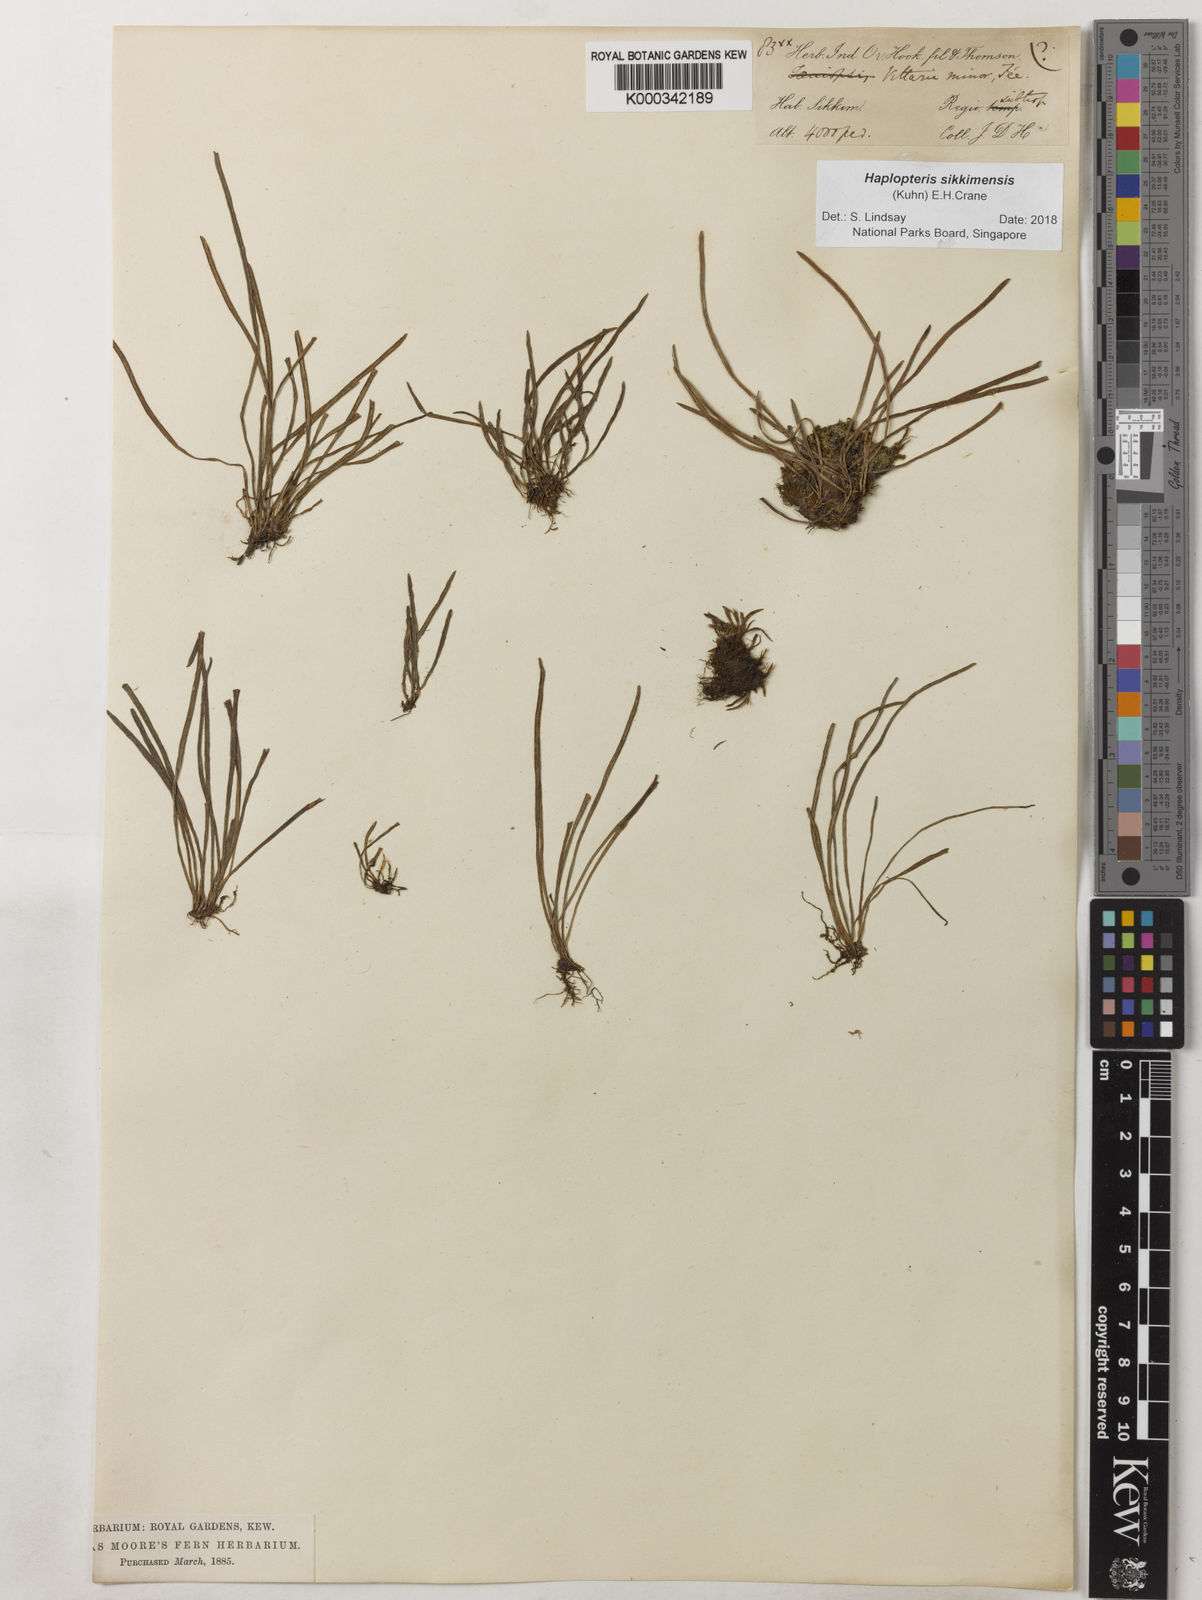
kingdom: Plantae
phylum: Tracheophyta
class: Polypodiopsida
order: Polypodiales
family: Pteridaceae
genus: Haplopteris
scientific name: Haplopteris sikkimensis
